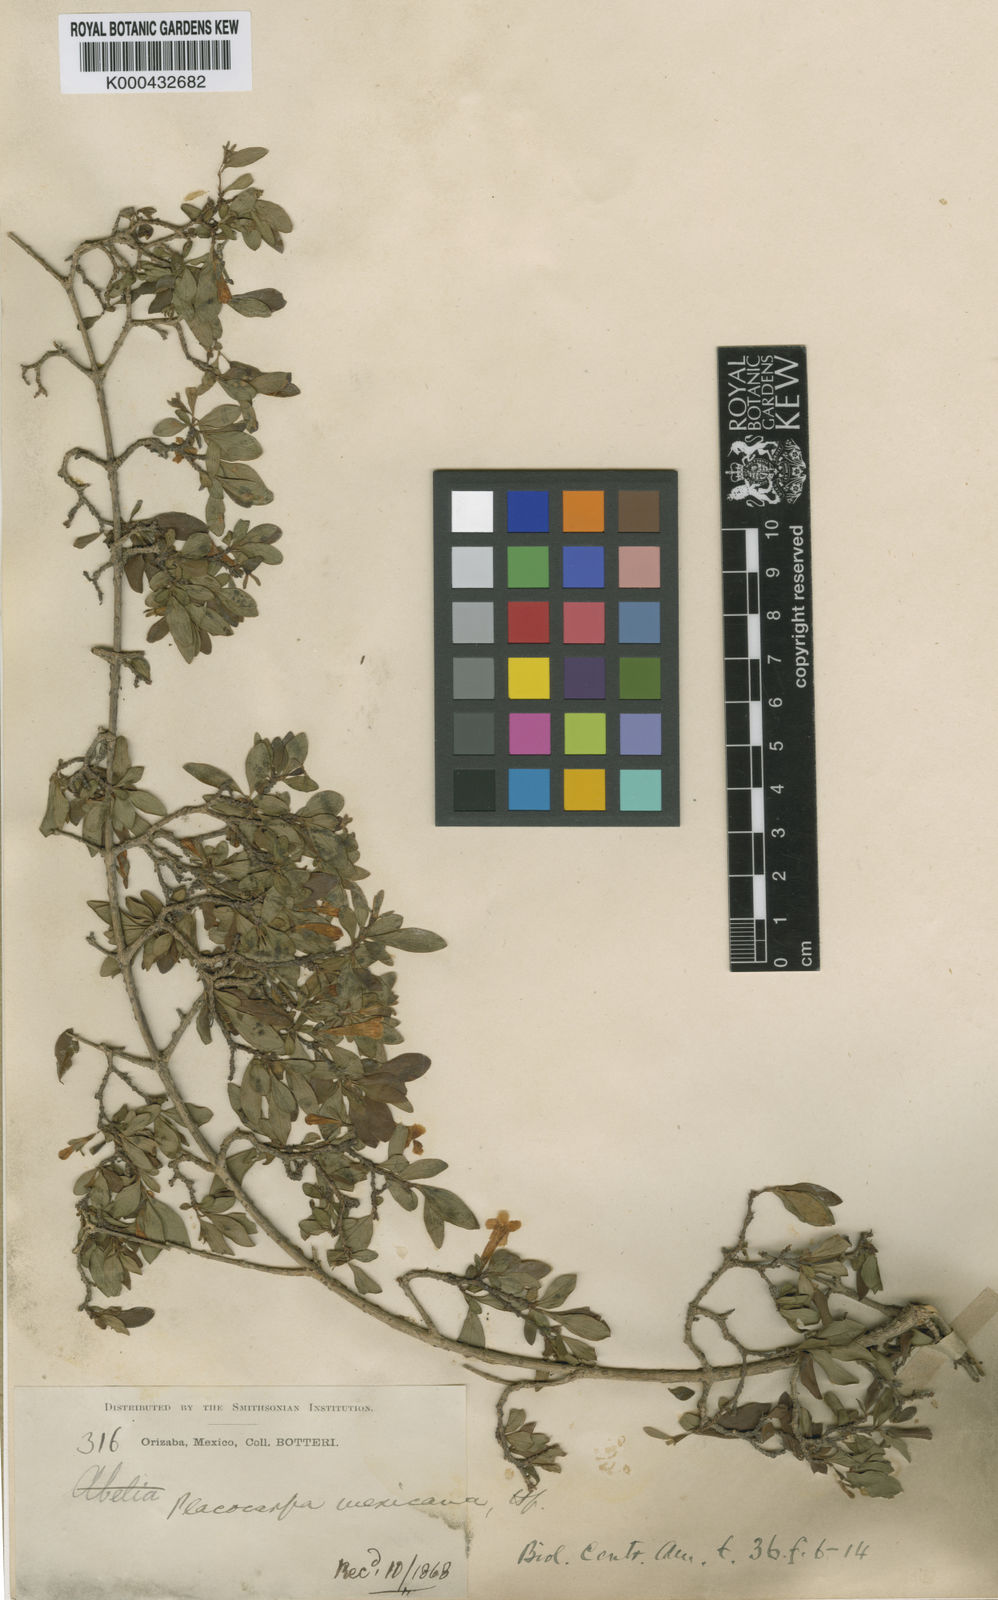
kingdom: Plantae
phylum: Tracheophyta
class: Magnoliopsida
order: Gentianales
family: Rubiaceae
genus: Placocarpa
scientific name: Placocarpa mexicana
